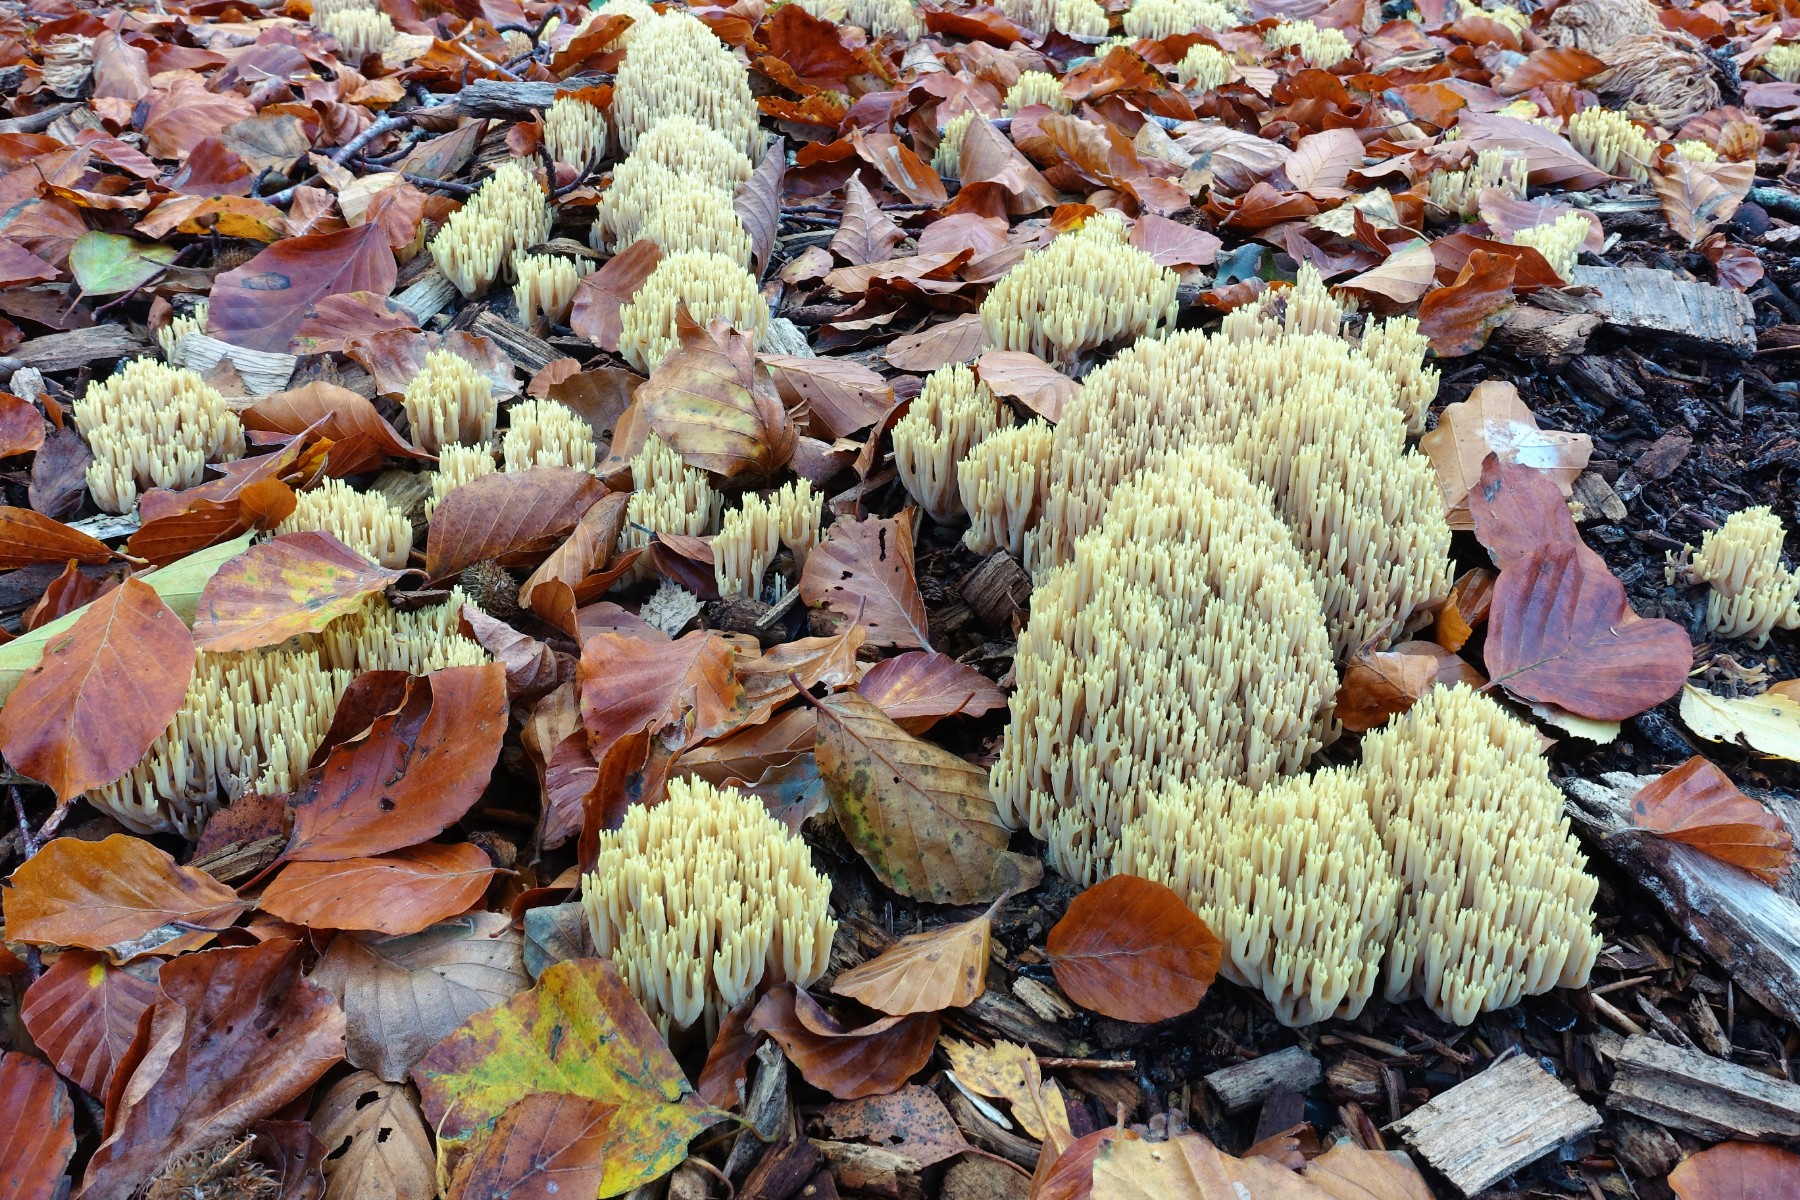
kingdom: Fungi
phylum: Basidiomycota
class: Agaricomycetes
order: Gomphales
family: Gomphaceae
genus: Ramaria
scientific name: Ramaria stricta
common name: rank koralsvamp
